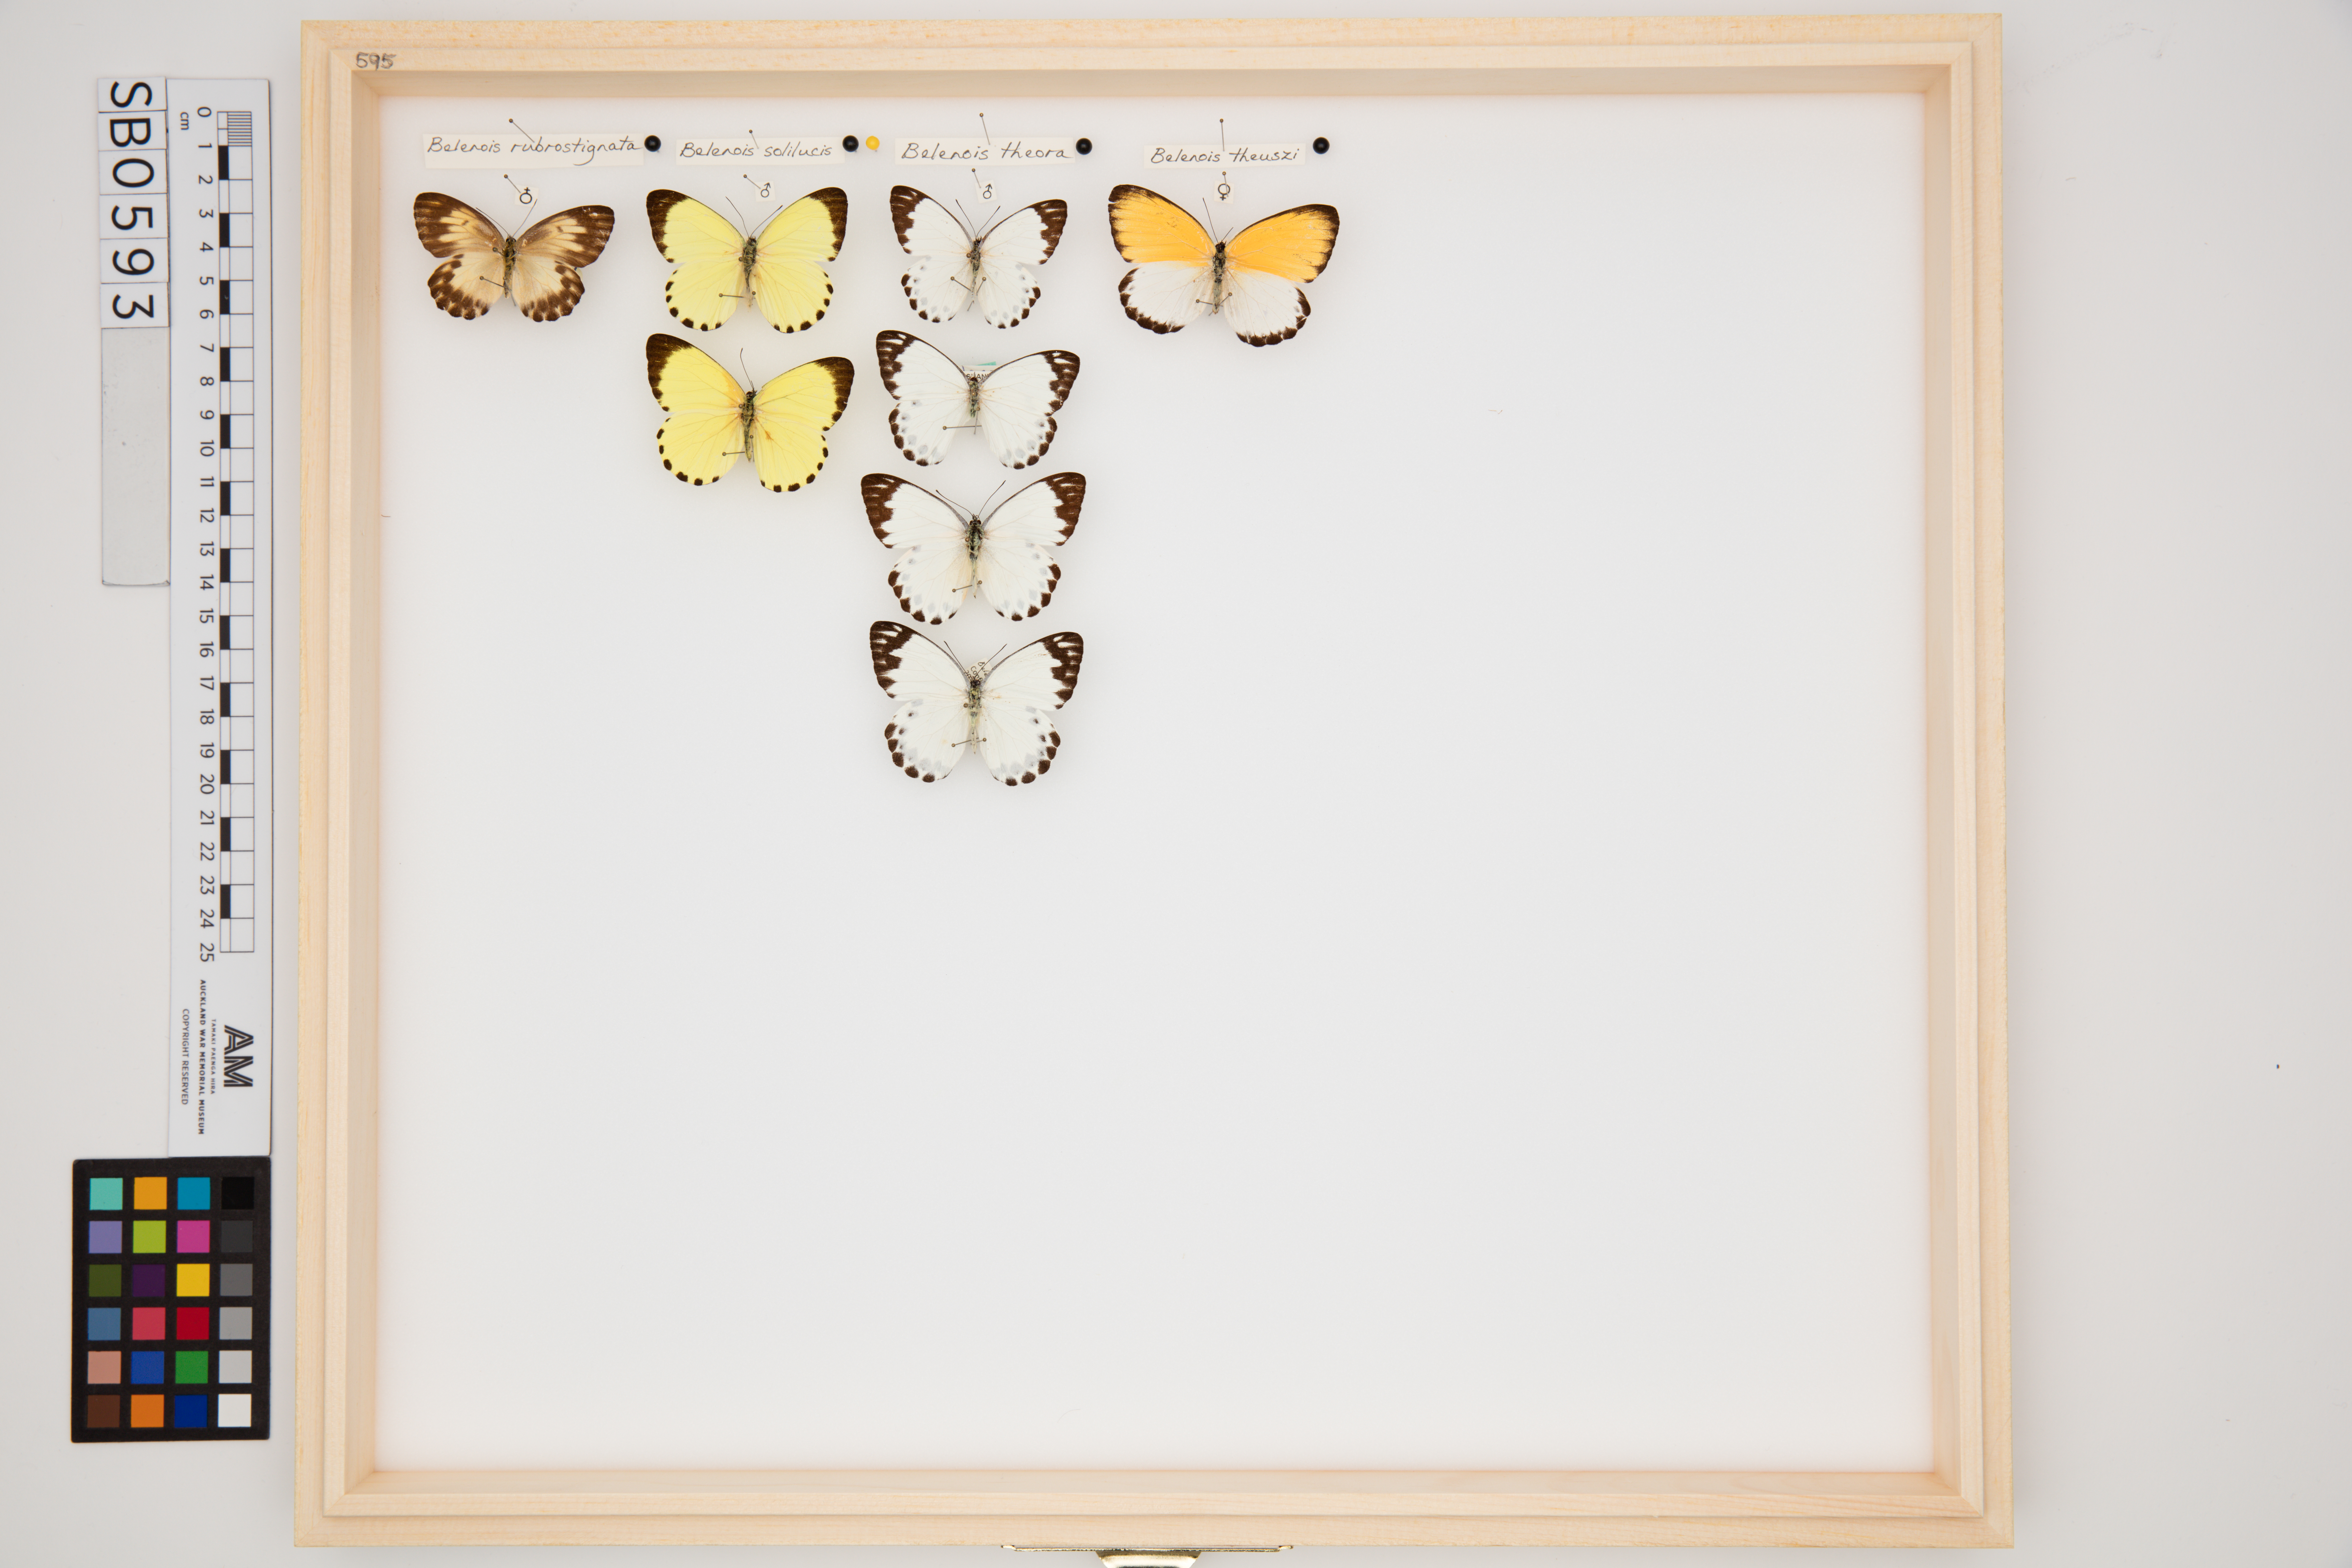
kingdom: Animalia
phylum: Arthropoda
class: Insecta
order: Lepidoptera
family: Pieridae
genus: Belenois
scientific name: Belenois rubrosignata
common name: Red-edged white
